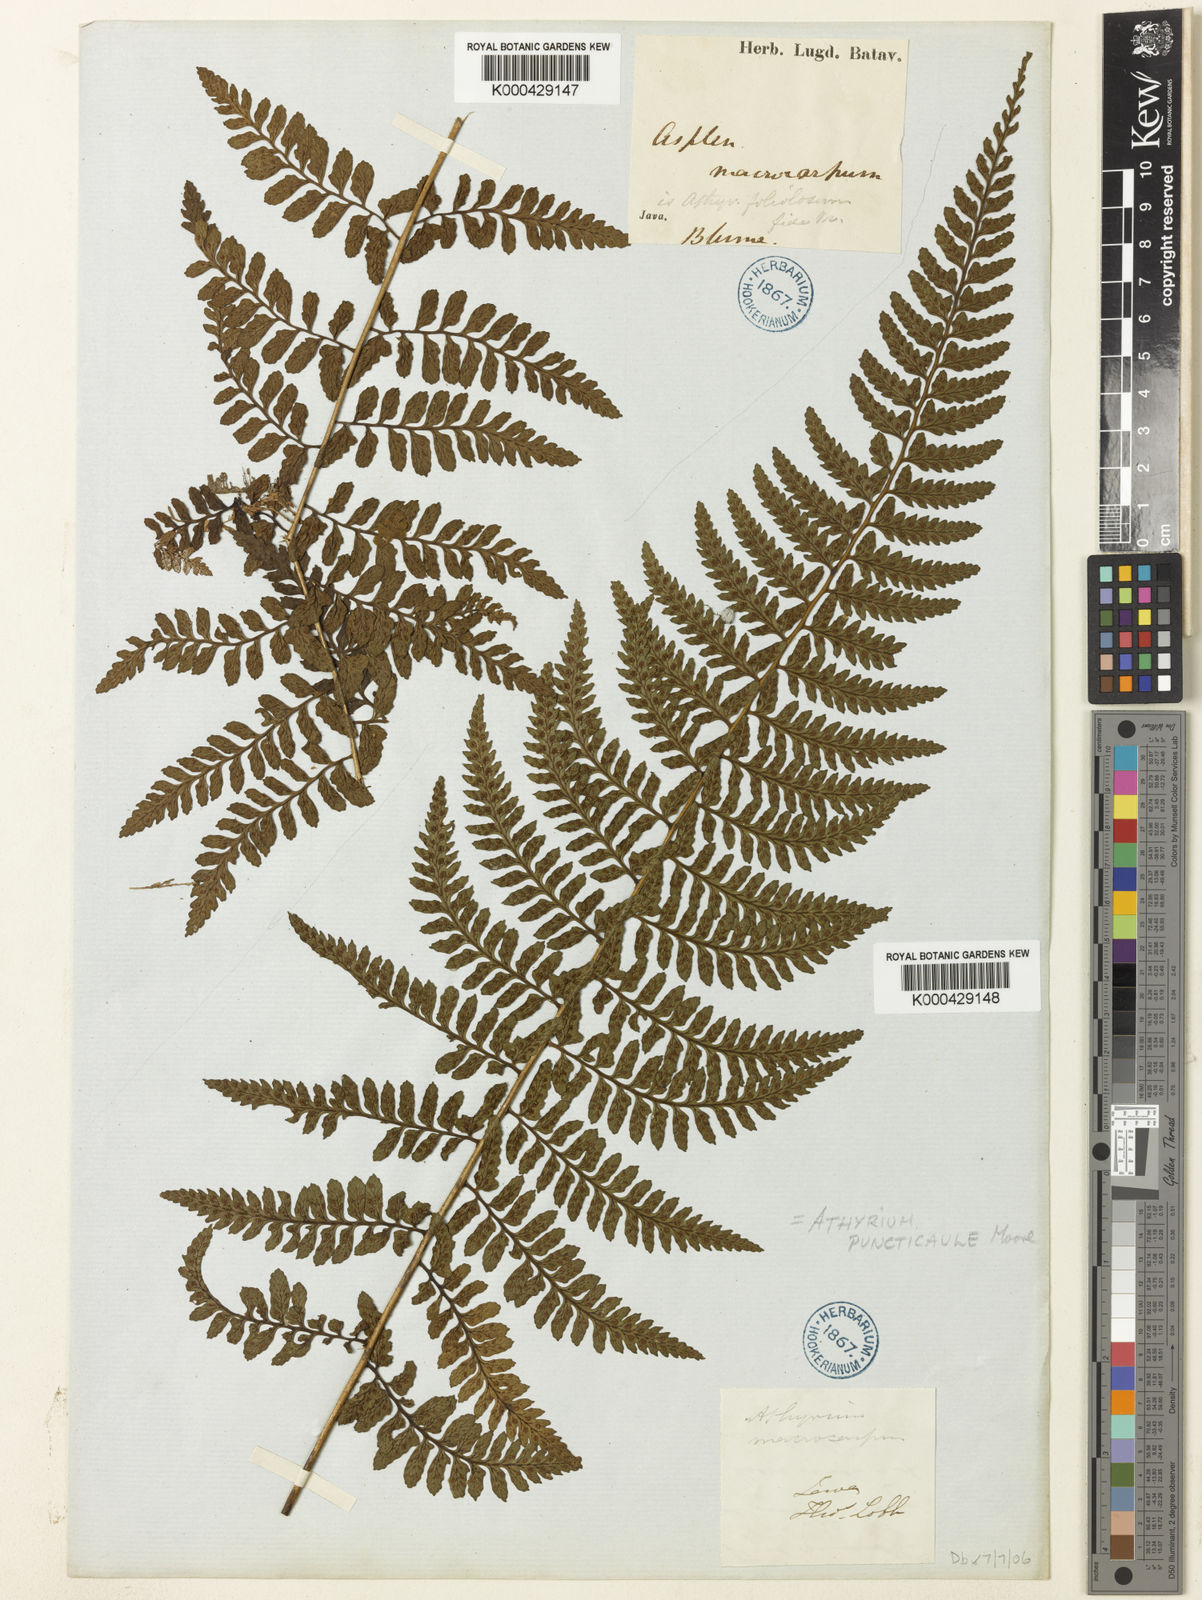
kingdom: Plantae
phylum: Tracheophyta
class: Polypodiopsida
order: Polypodiales
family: Athyriaceae
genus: Athyrium
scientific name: Athyrium puncticaule
